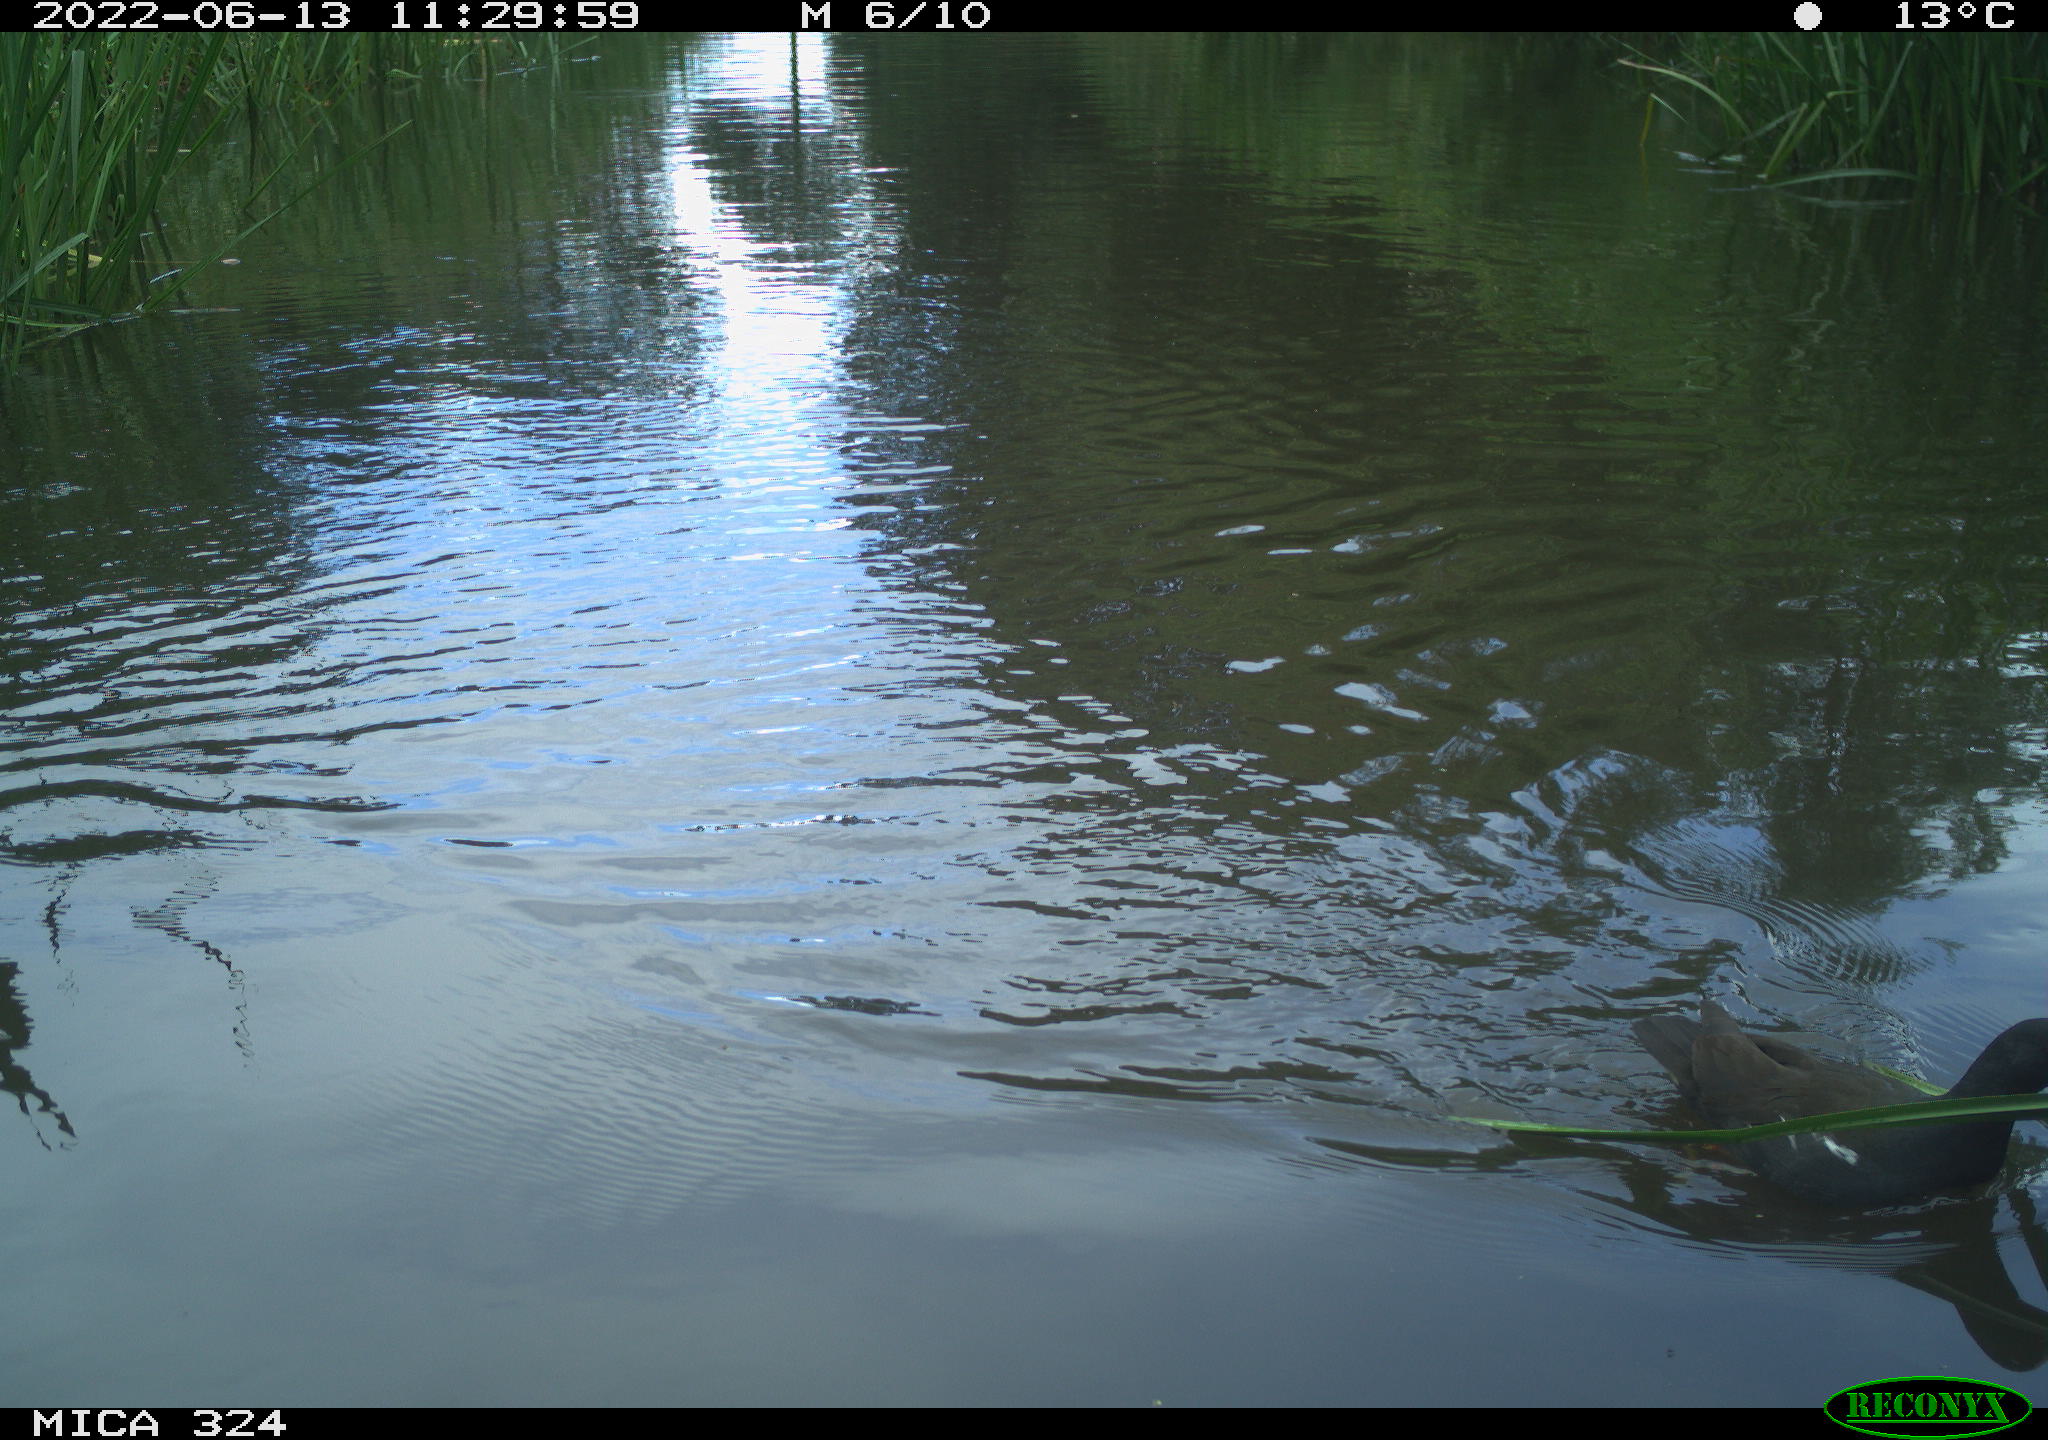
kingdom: Animalia
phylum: Chordata
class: Aves
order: Gruiformes
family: Rallidae
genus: Gallinula
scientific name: Gallinula chloropus
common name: Common moorhen
